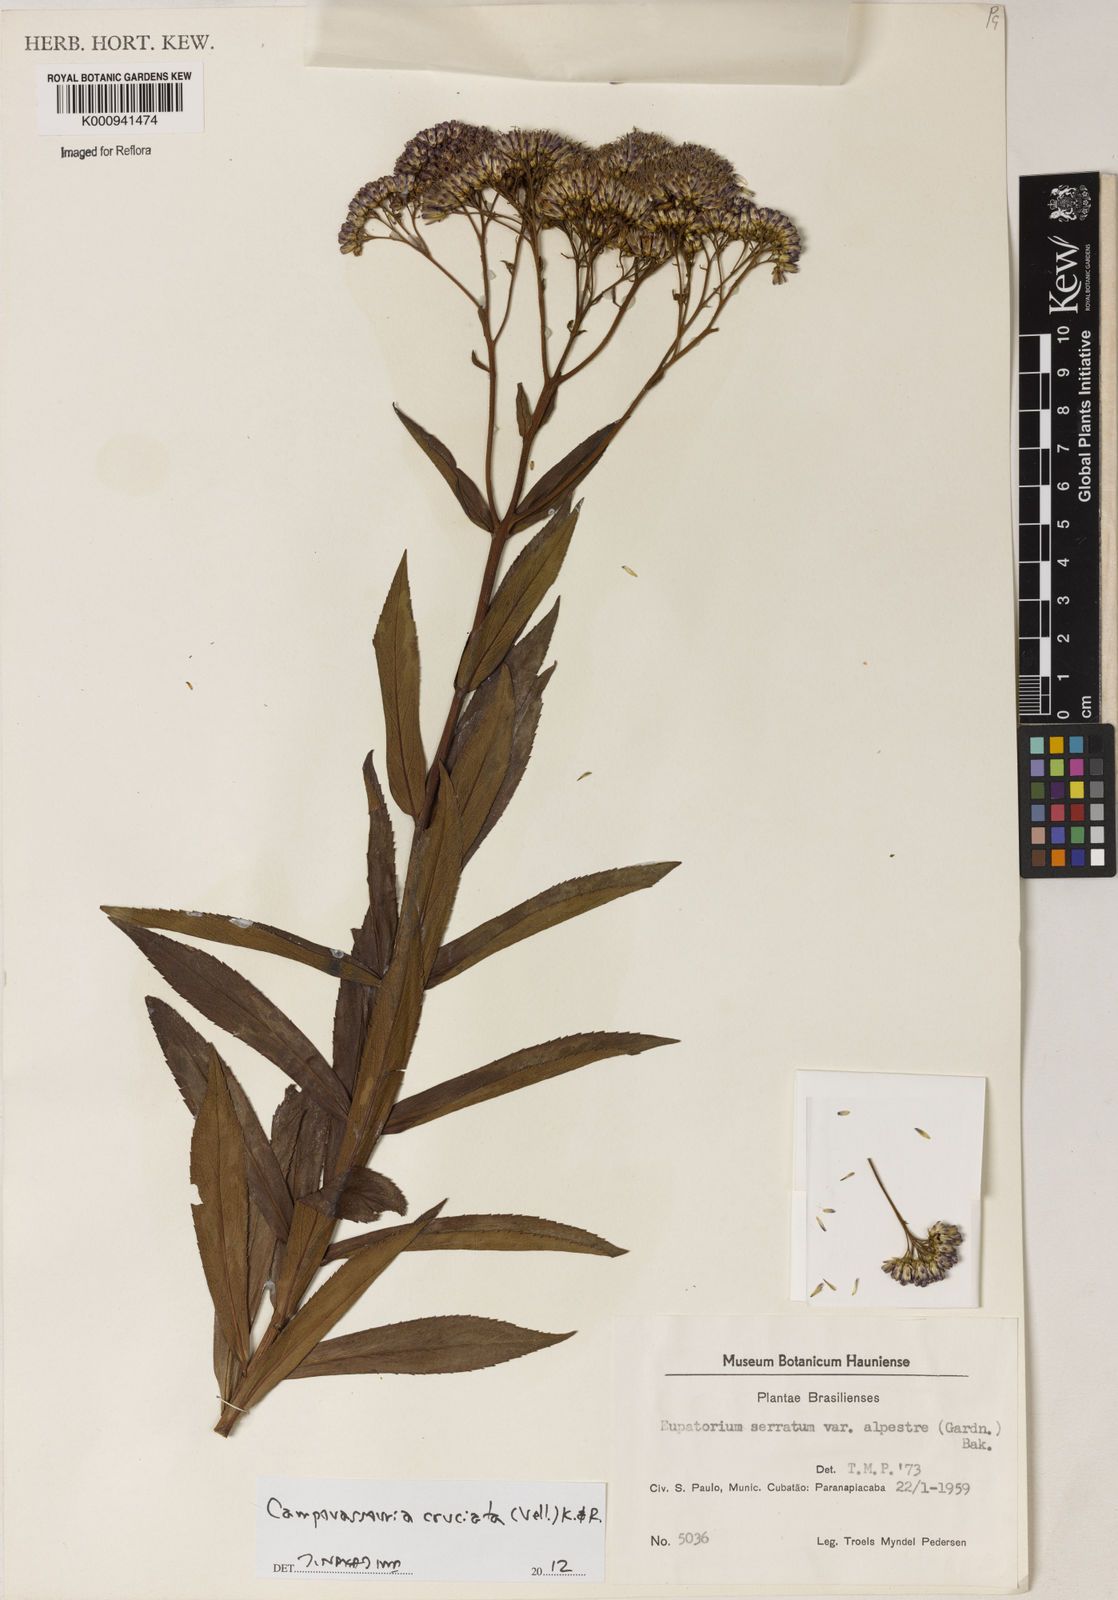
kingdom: Plantae
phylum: Tracheophyta
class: Magnoliopsida
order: Asterales
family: Asteraceae
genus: Campovassouria
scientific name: Campovassouria cruciata
